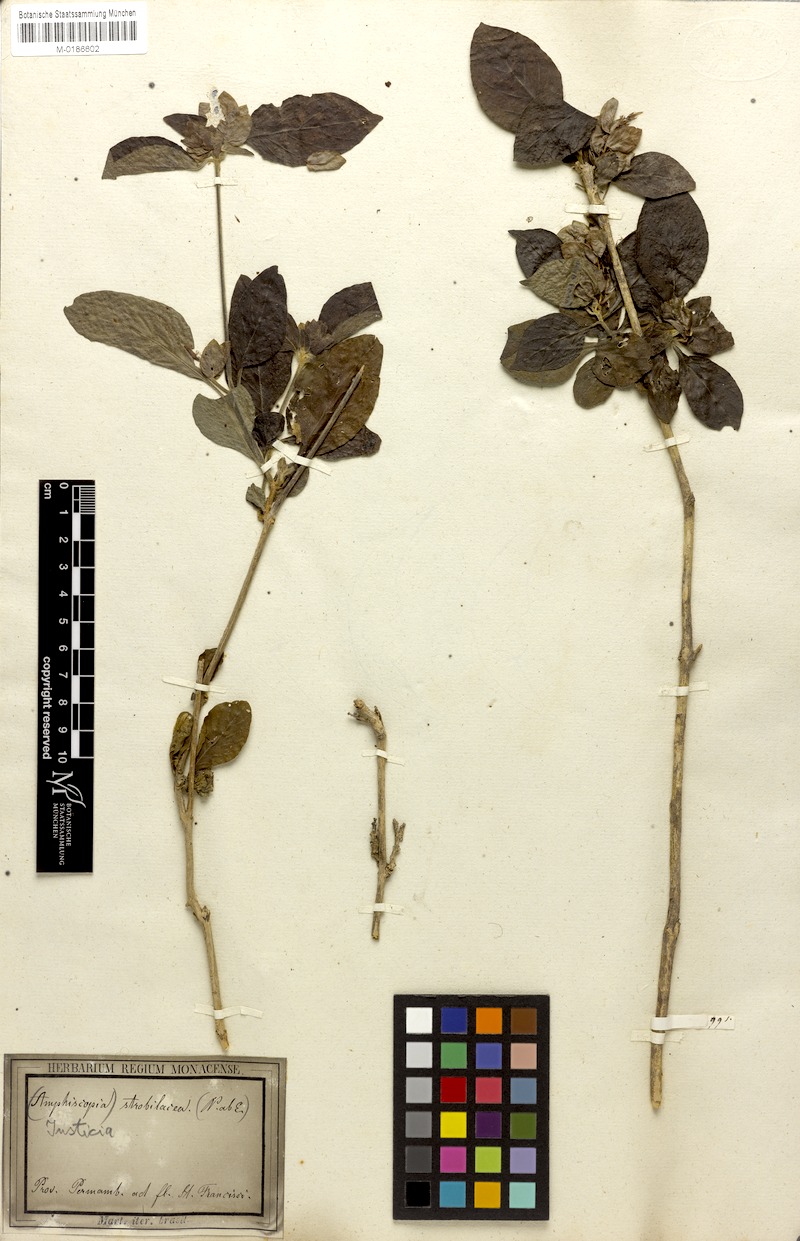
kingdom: Plantae
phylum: Tracheophyta
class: Magnoliopsida
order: Lamiales
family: Acanthaceae
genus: Justicia
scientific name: Justicia aequilabris
